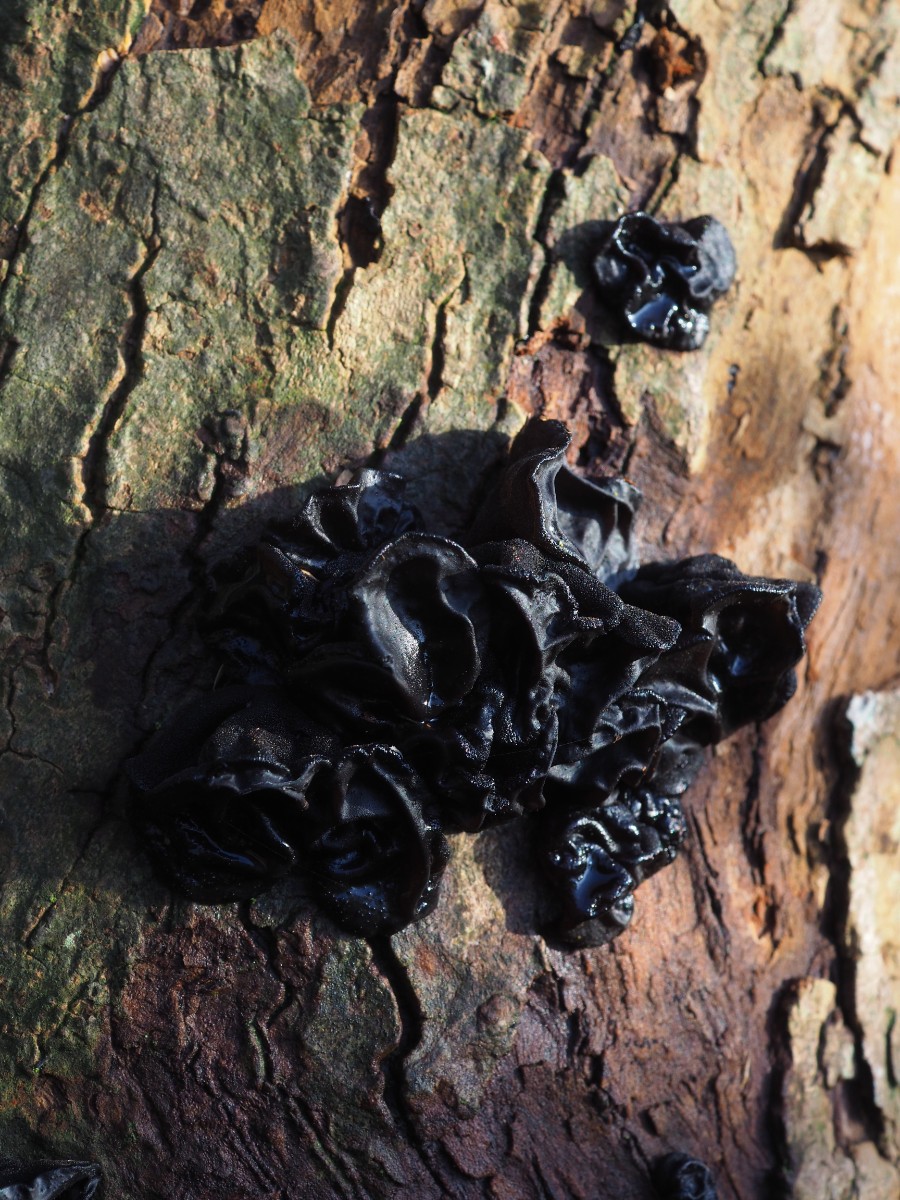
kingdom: Fungi
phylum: Basidiomycota
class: Agaricomycetes
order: Auriculariales
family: Auriculariaceae
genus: Exidia
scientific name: Exidia glandulosa
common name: ege-bævretop
